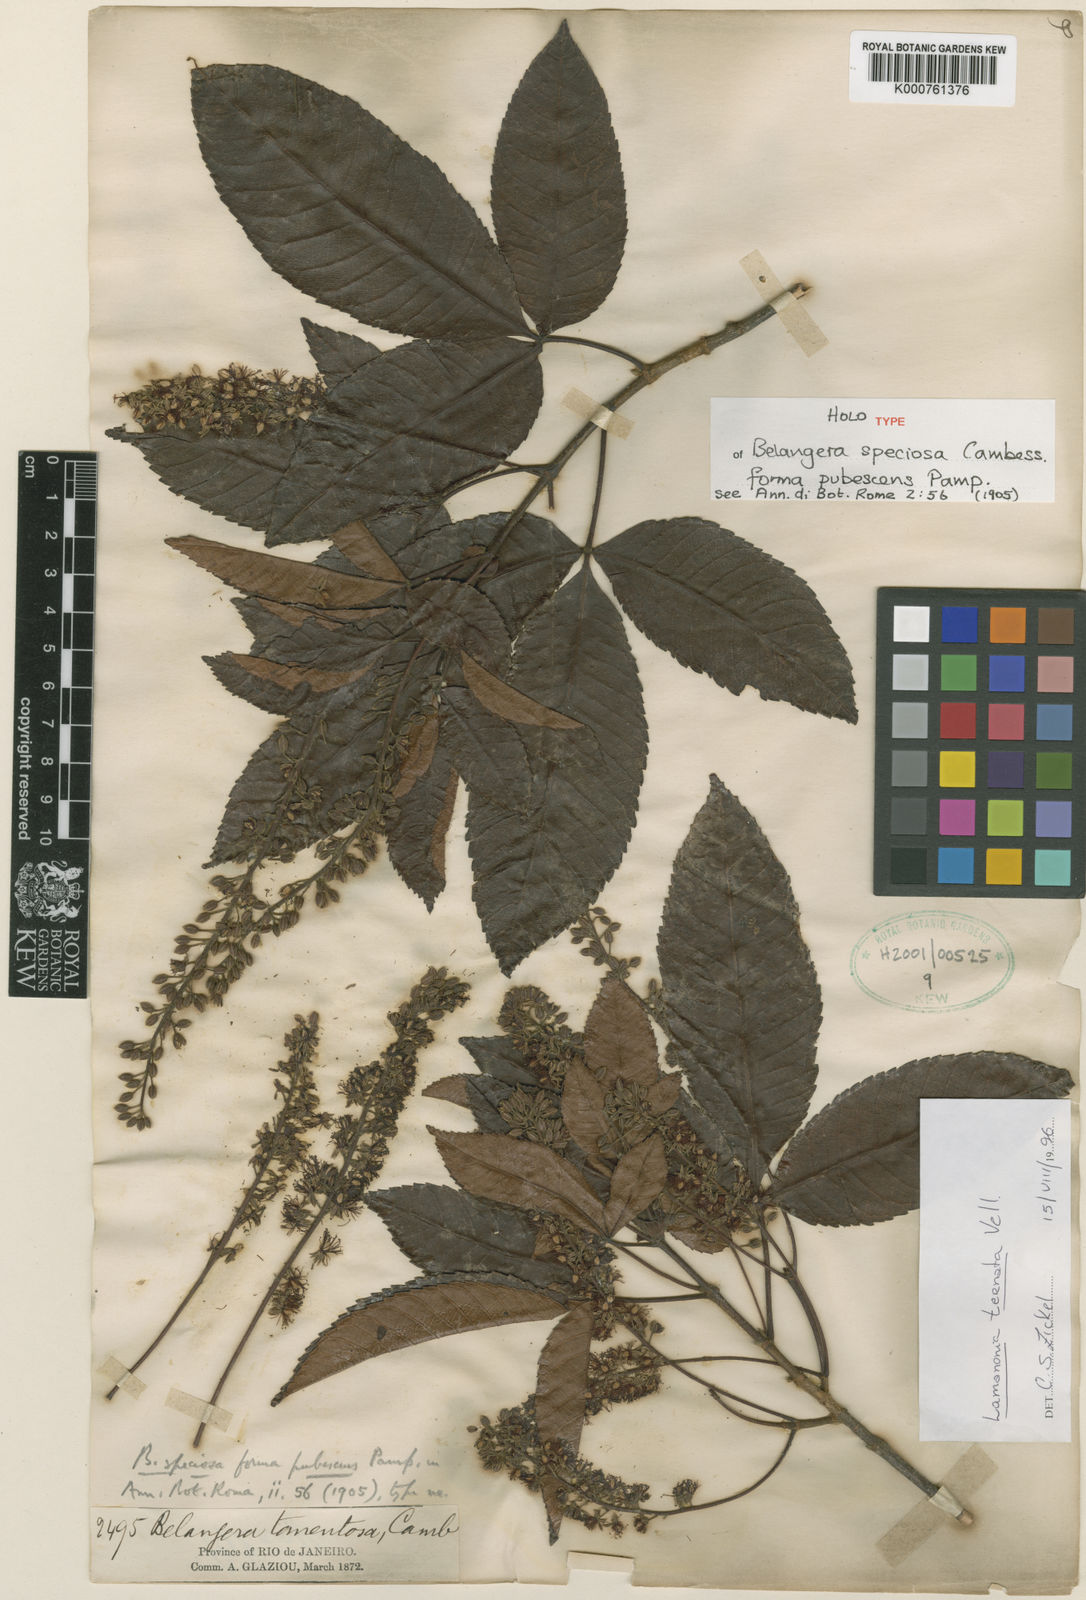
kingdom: Plantae
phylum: Tracheophyta
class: Magnoliopsida
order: Oxalidales
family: Cunoniaceae
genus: Lamanonia
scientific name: Lamanonia ternata
